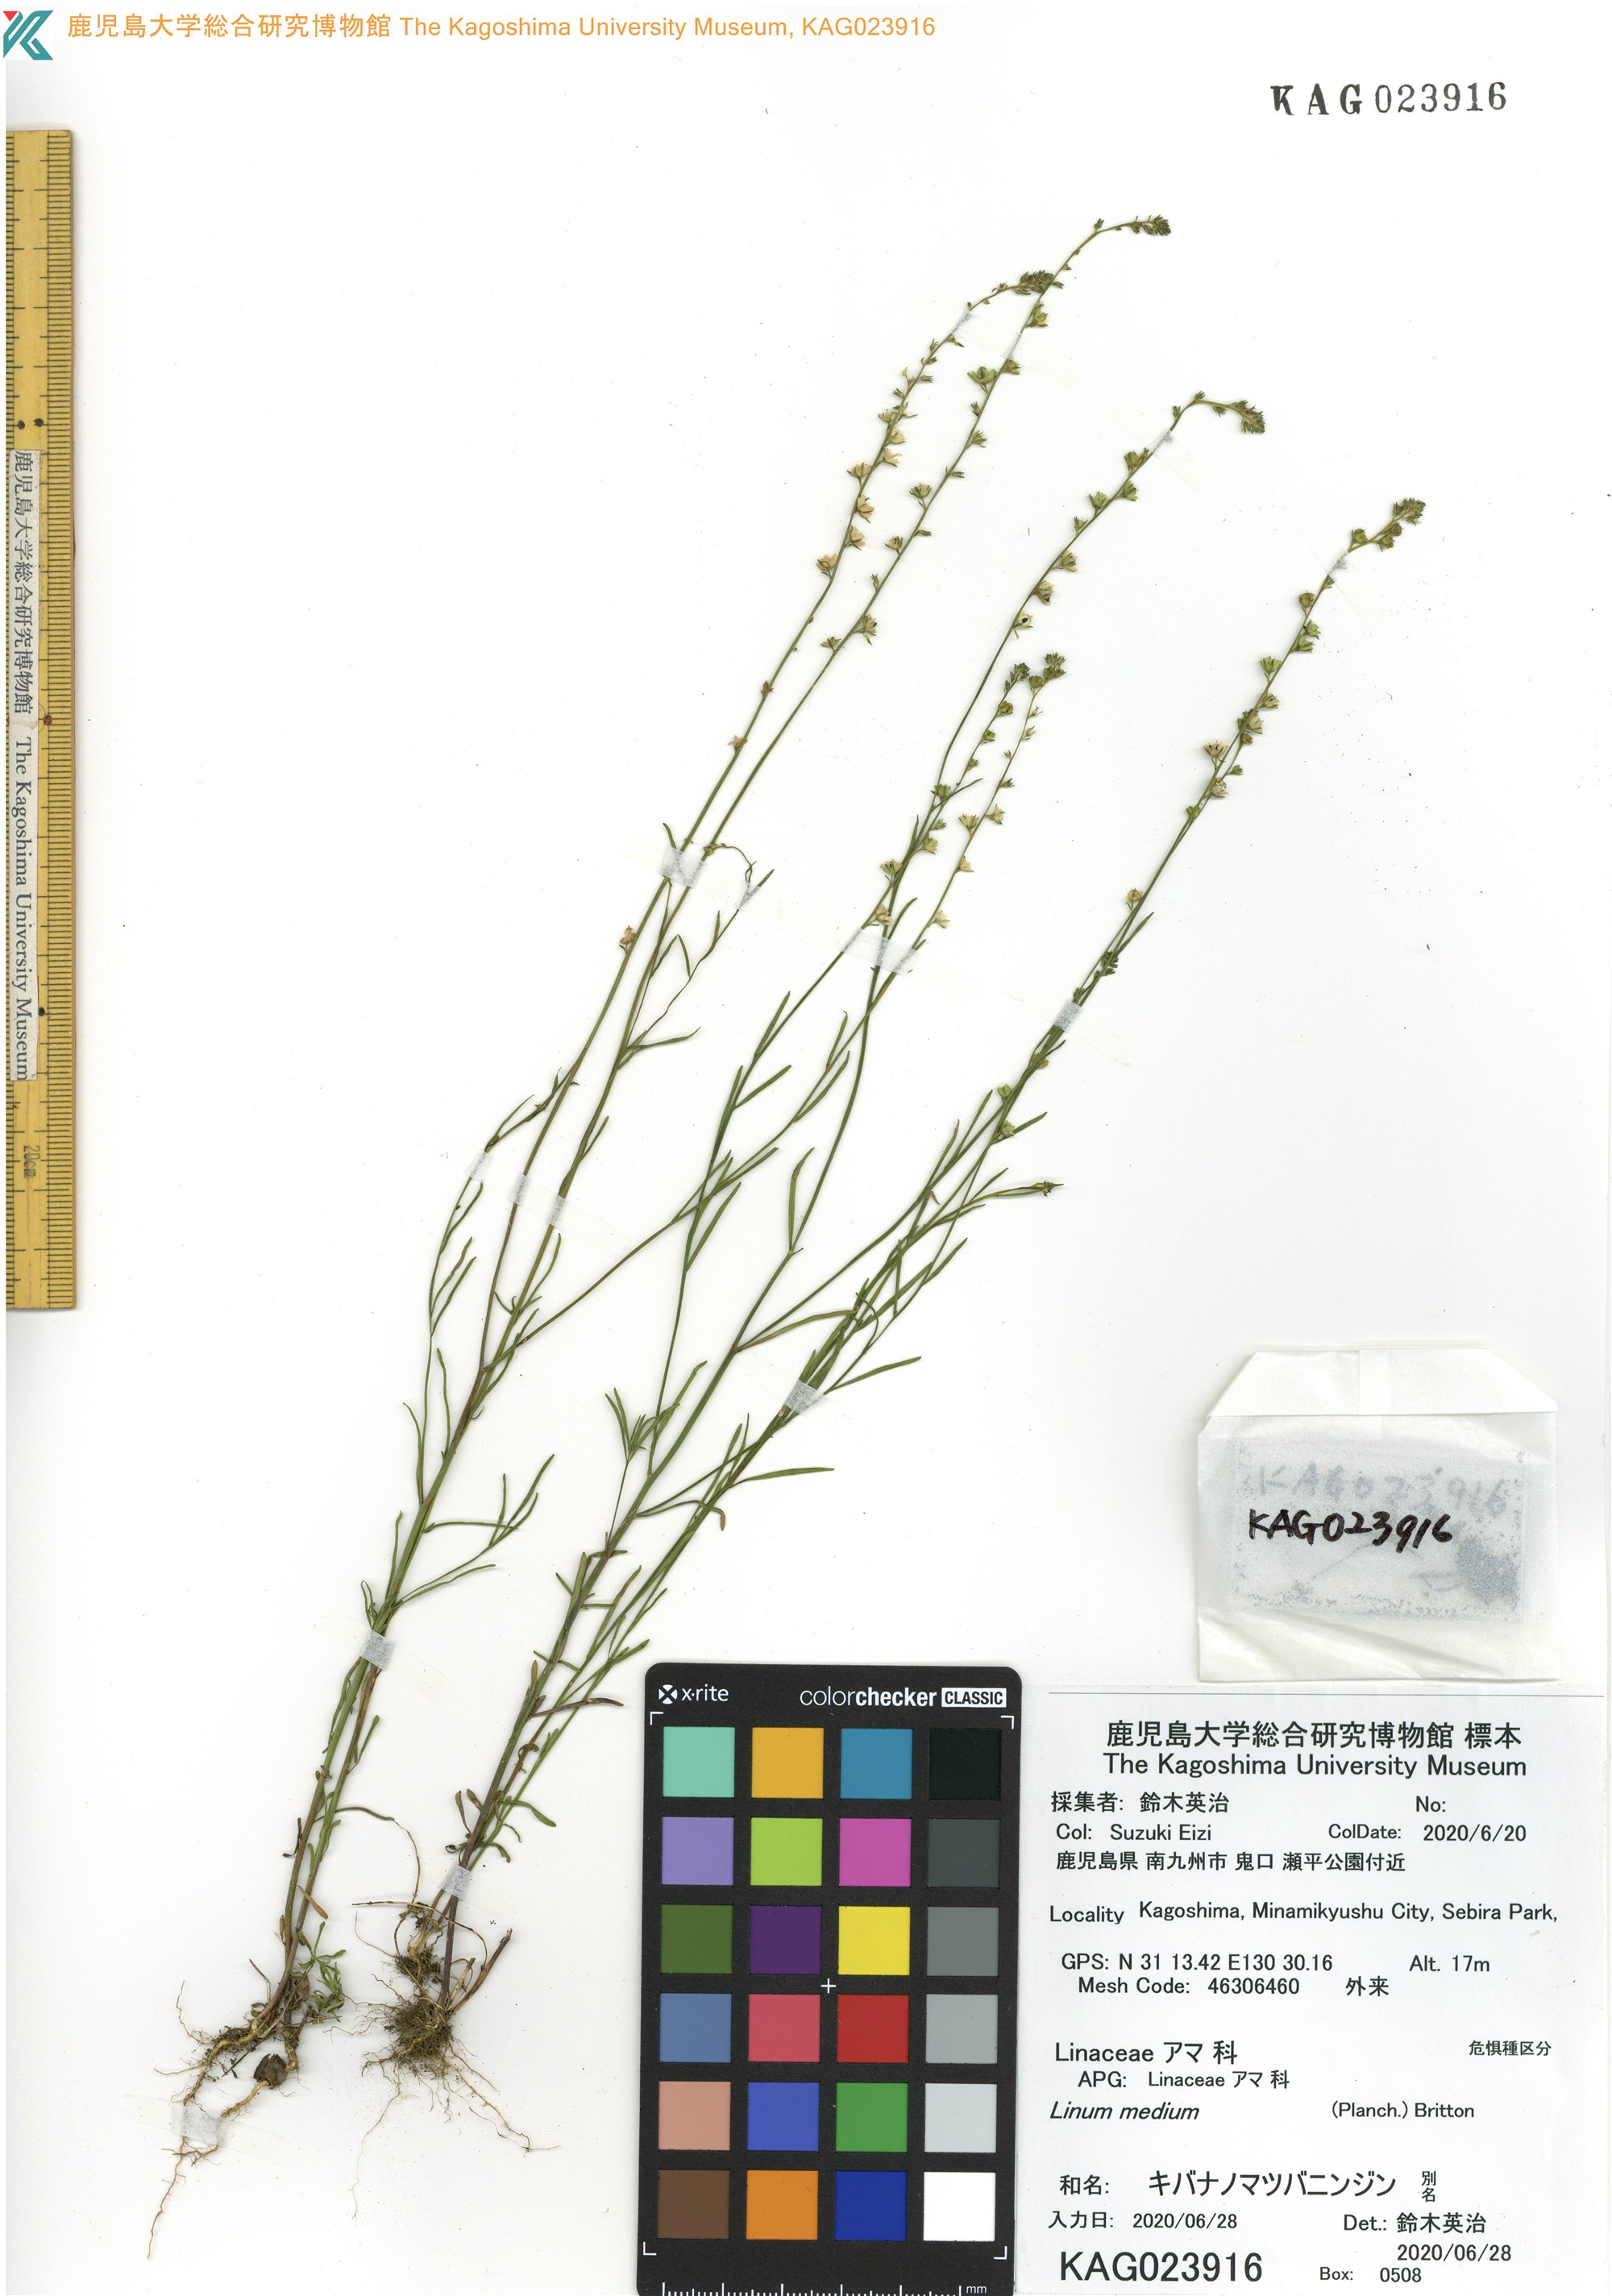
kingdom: Plantae
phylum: Tracheophyta
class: Magnoliopsida
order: Malpighiales
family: Linaceae
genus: Linum
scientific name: Linum medium
